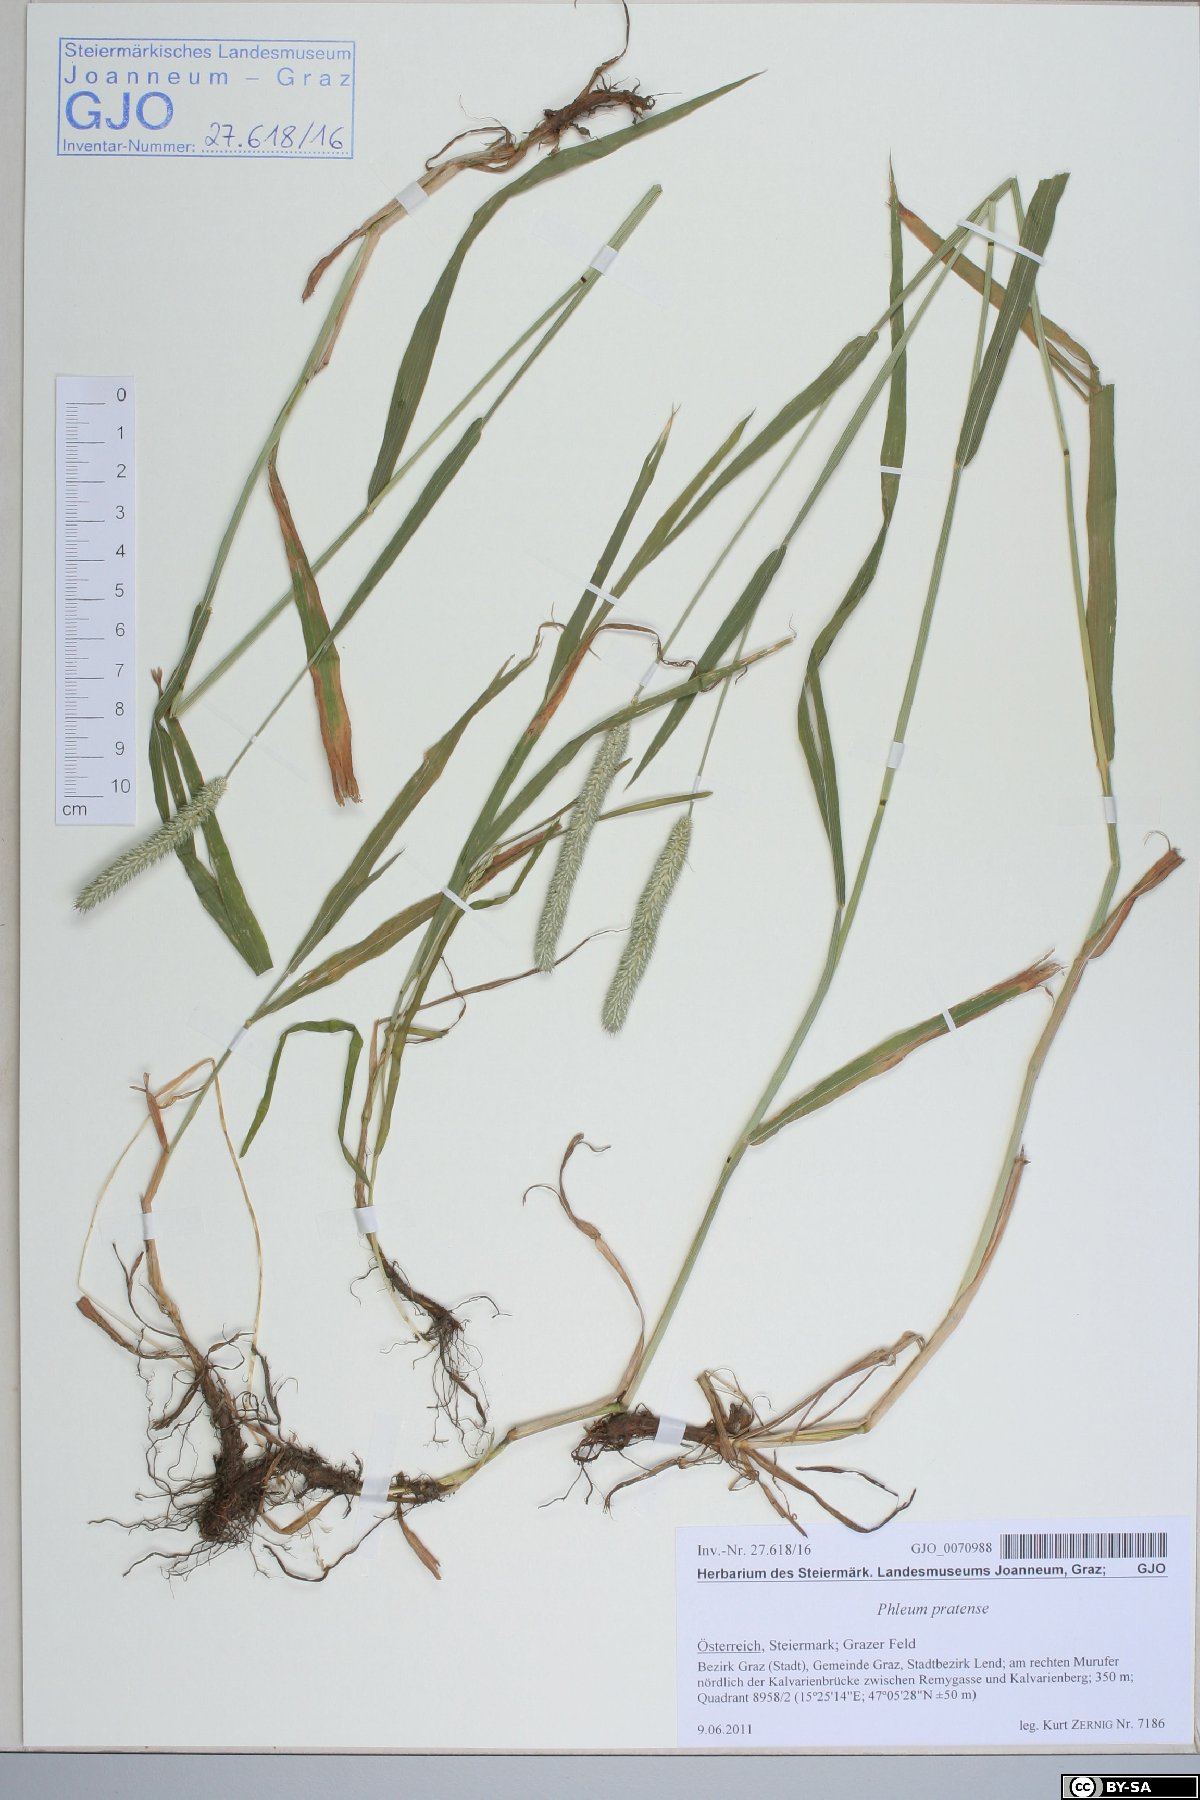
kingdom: Plantae
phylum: Tracheophyta
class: Liliopsida
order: Poales
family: Poaceae
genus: Phleum
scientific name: Phleum pratense
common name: Timothy grass
